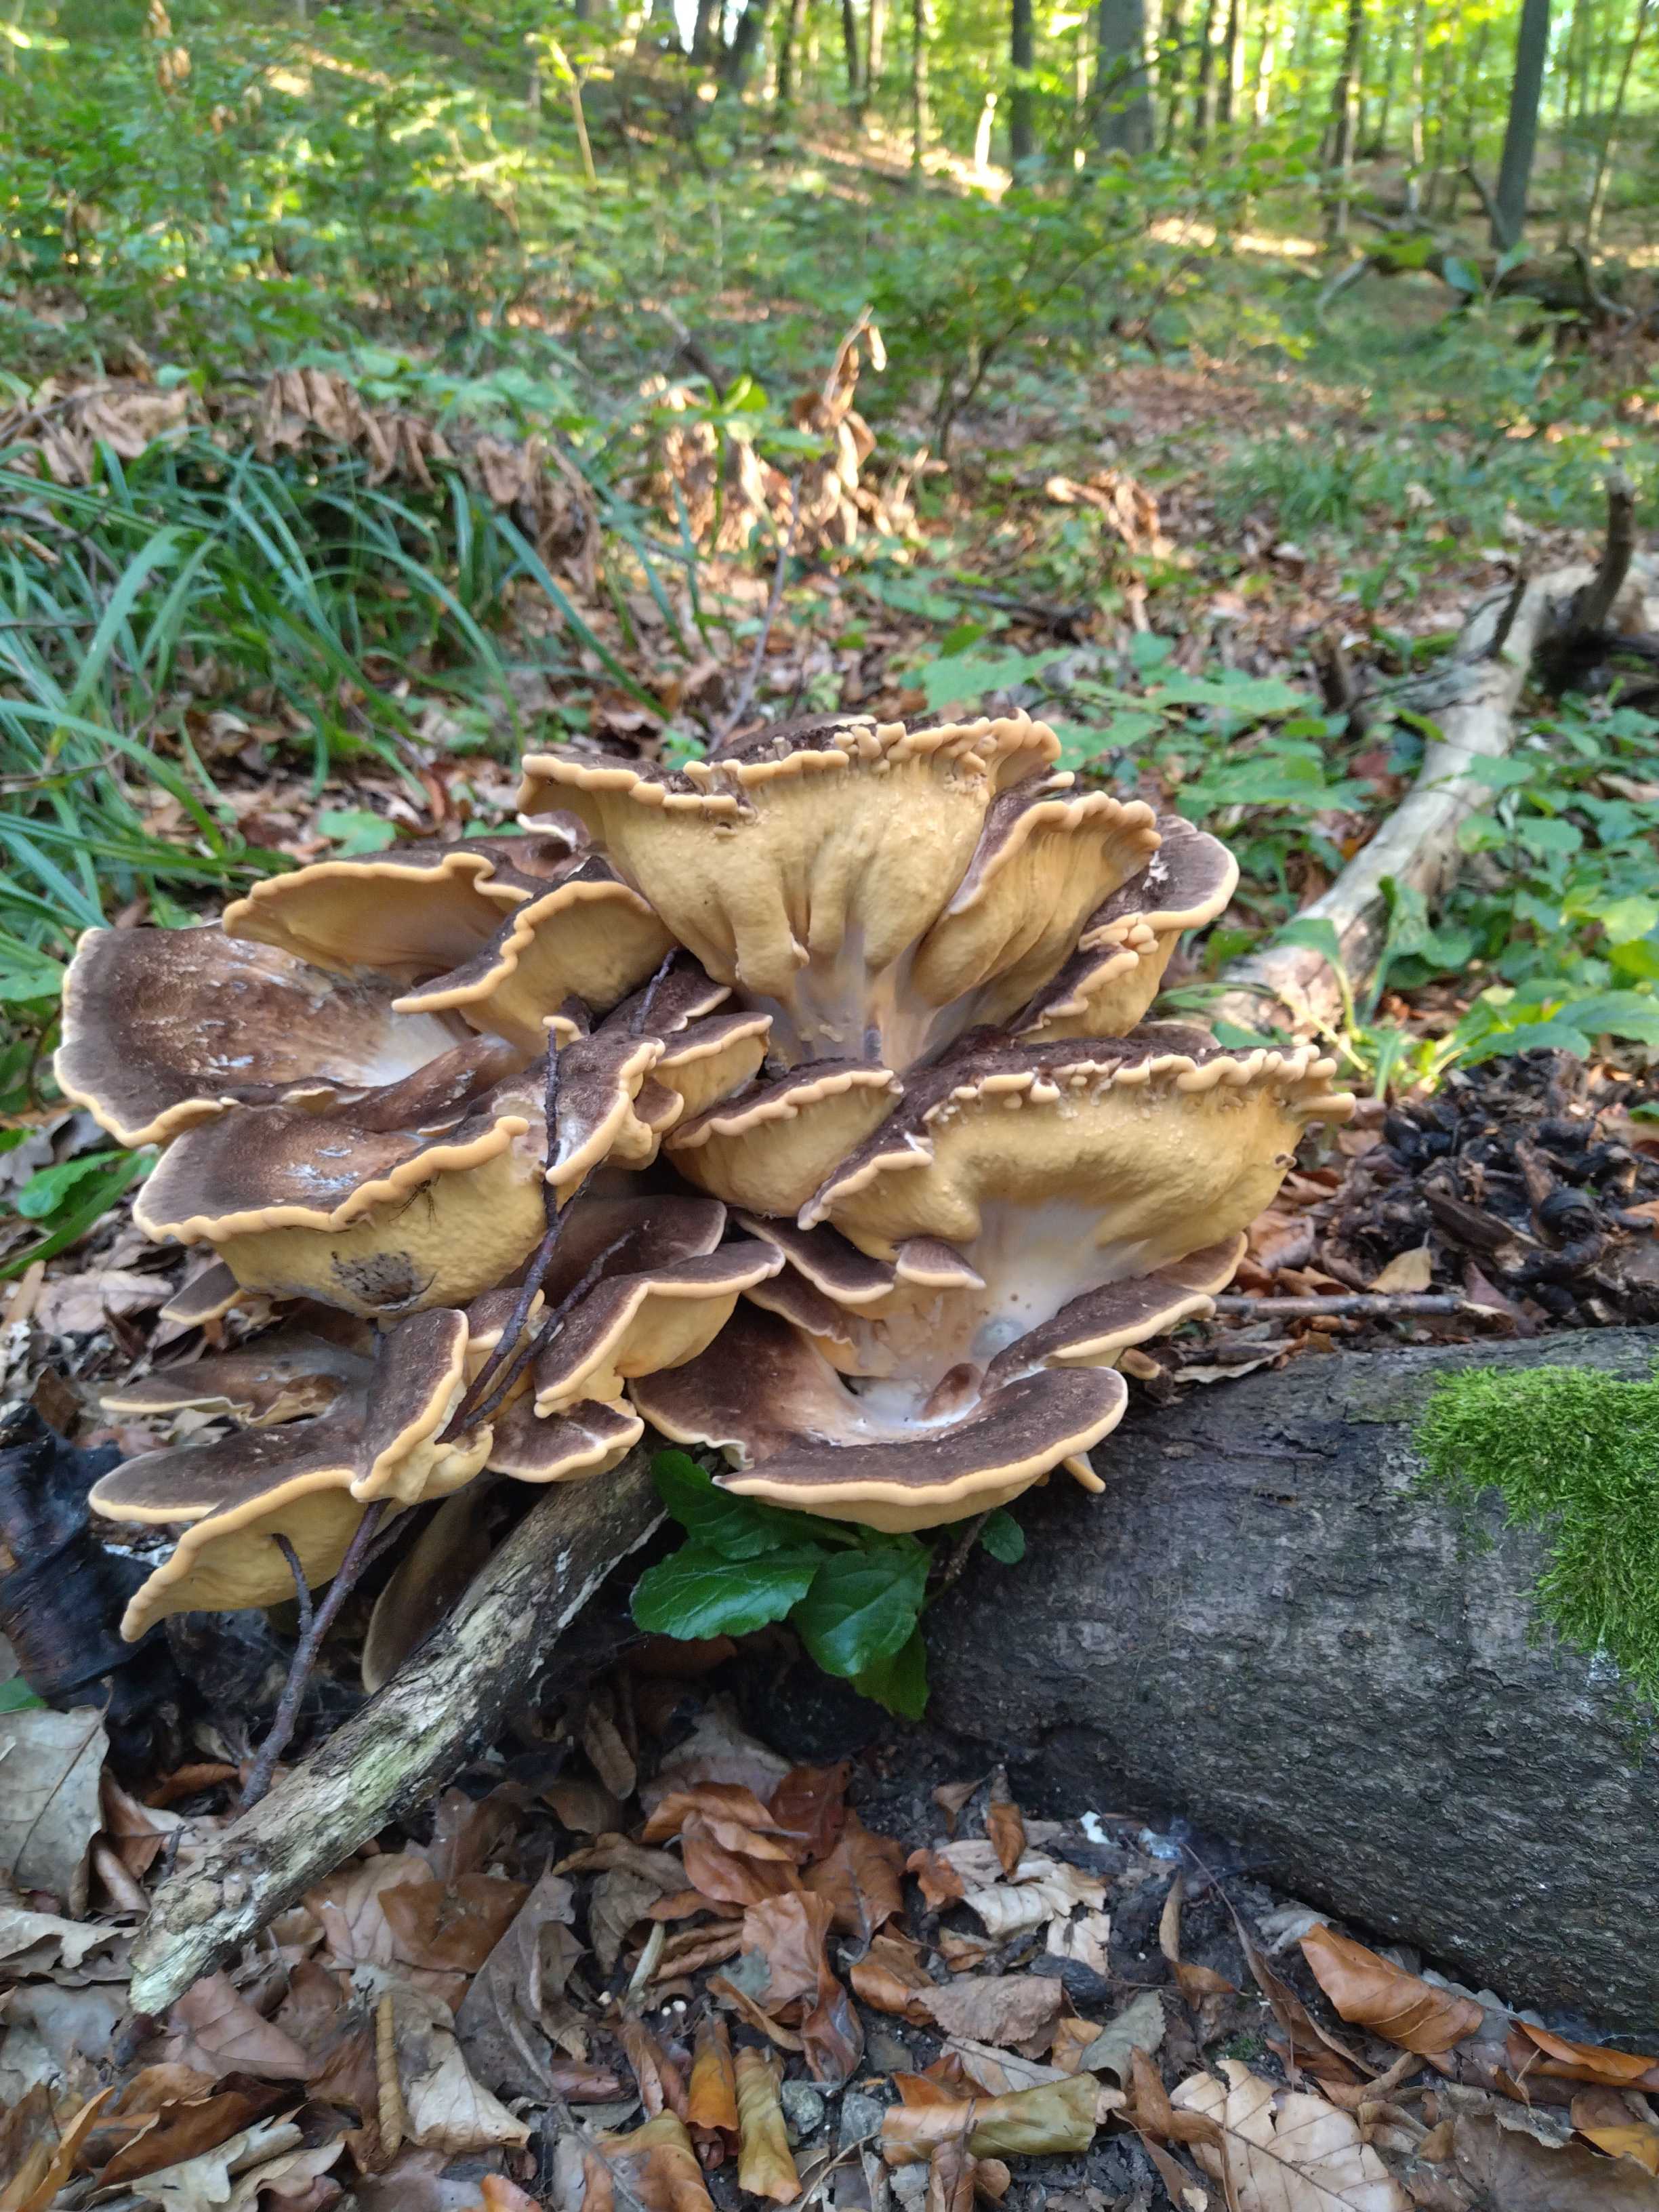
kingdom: Fungi
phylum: Basidiomycota
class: Agaricomycetes
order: Polyporales
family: Meripilaceae
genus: Meripilus
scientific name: Meripilus giganteus
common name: kæmpeporesvamp
